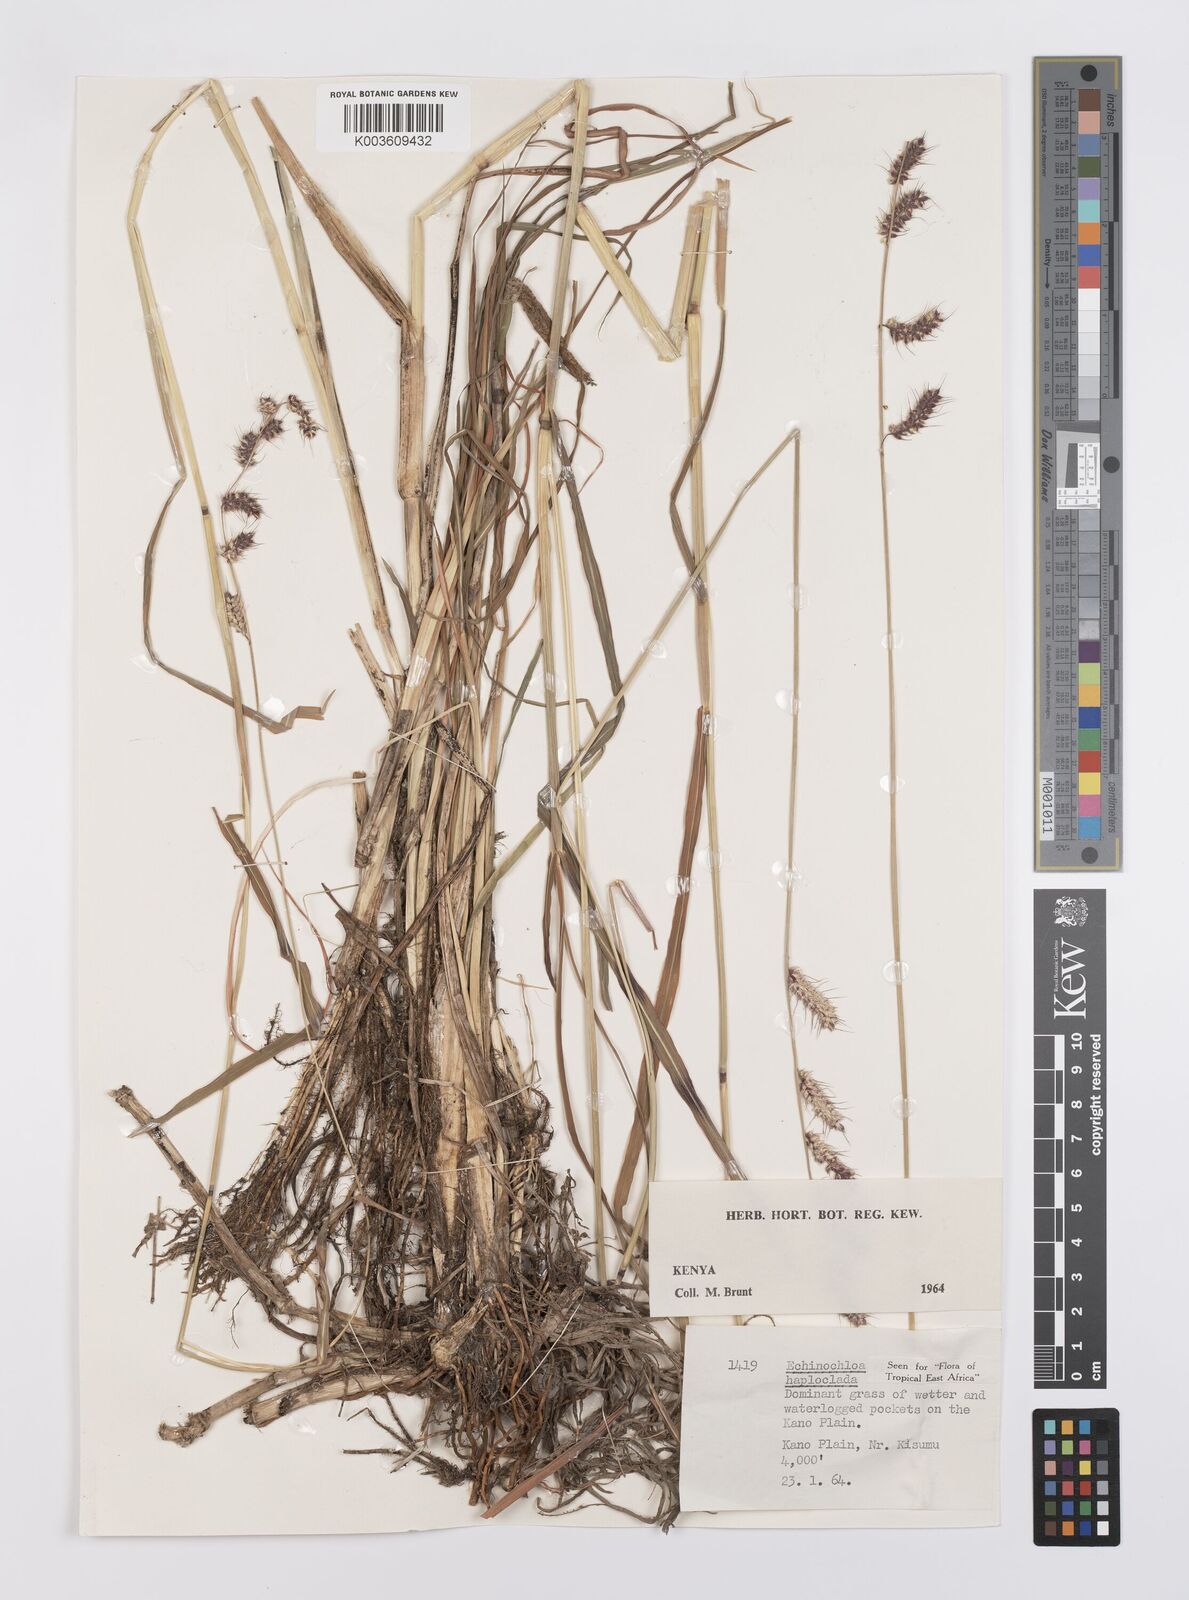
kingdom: Plantae
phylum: Tracheophyta
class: Liliopsida
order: Poales
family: Poaceae
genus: Echinochloa
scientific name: Echinochloa haploclada
